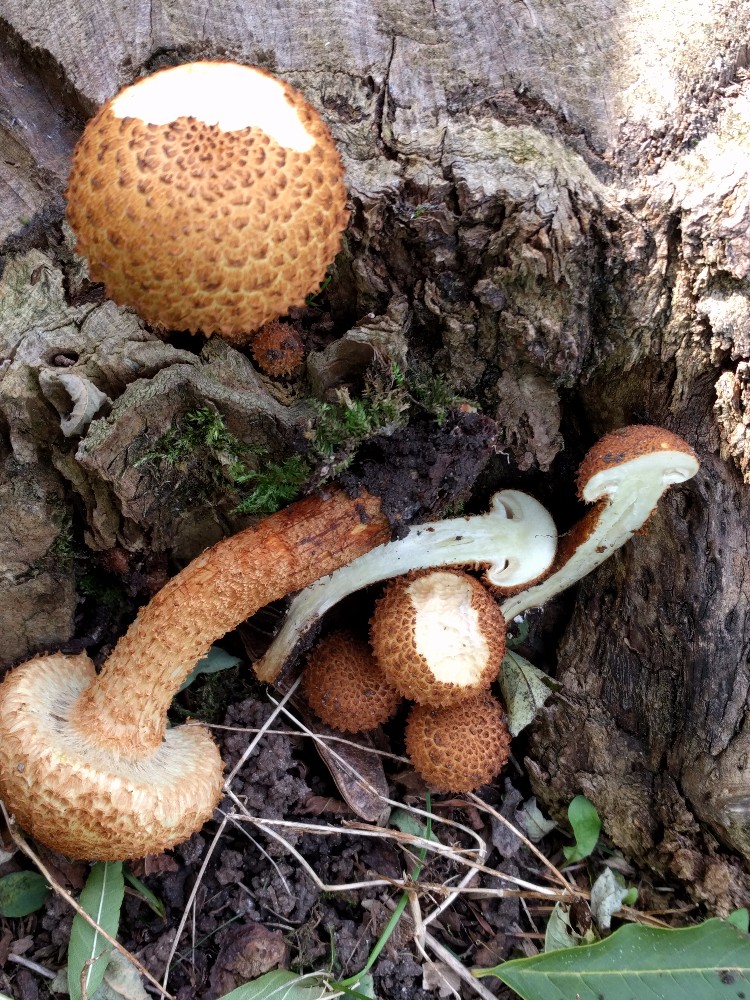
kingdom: Fungi
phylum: Basidiomycota
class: Agaricomycetes
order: Agaricales
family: Strophariaceae
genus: Pholiota
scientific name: Pholiota squarrosa
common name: krumskællet skælhat
